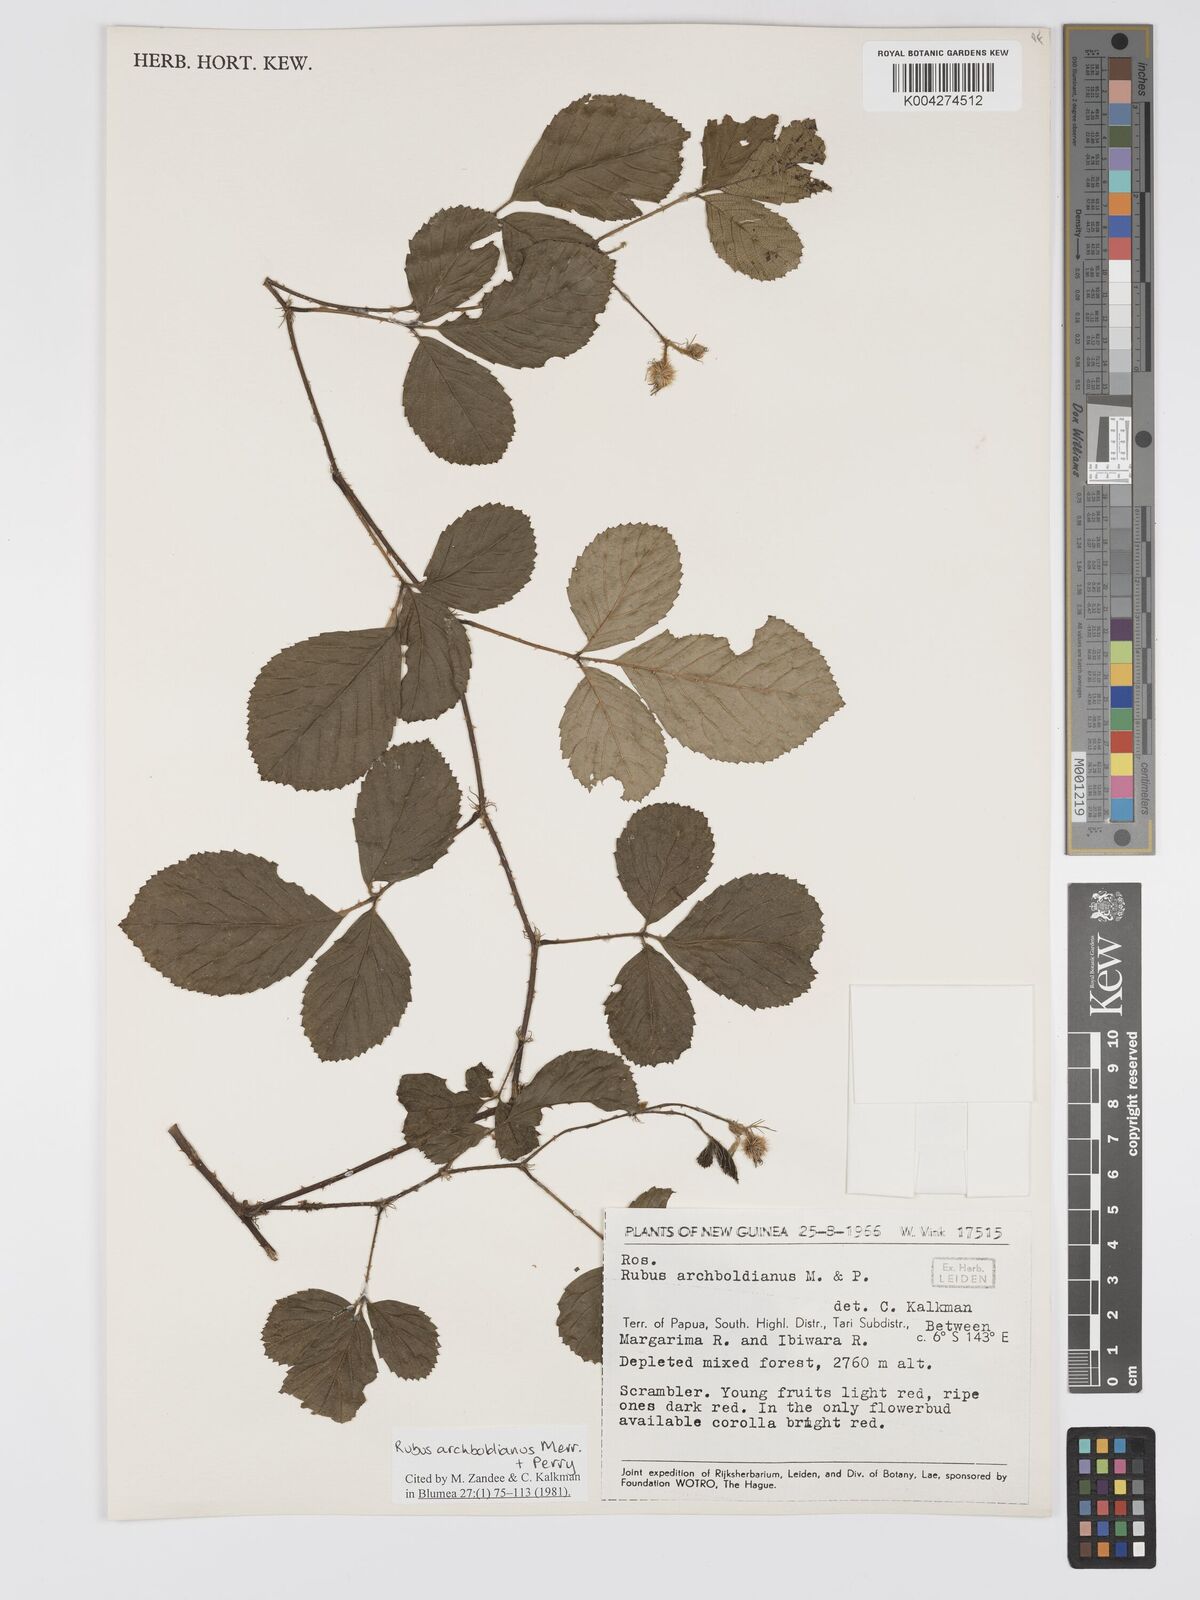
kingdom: Plantae
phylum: Tracheophyta
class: Magnoliopsida
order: Rosales
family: Rosaceae
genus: Rubus
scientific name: Rubus archboldianus
